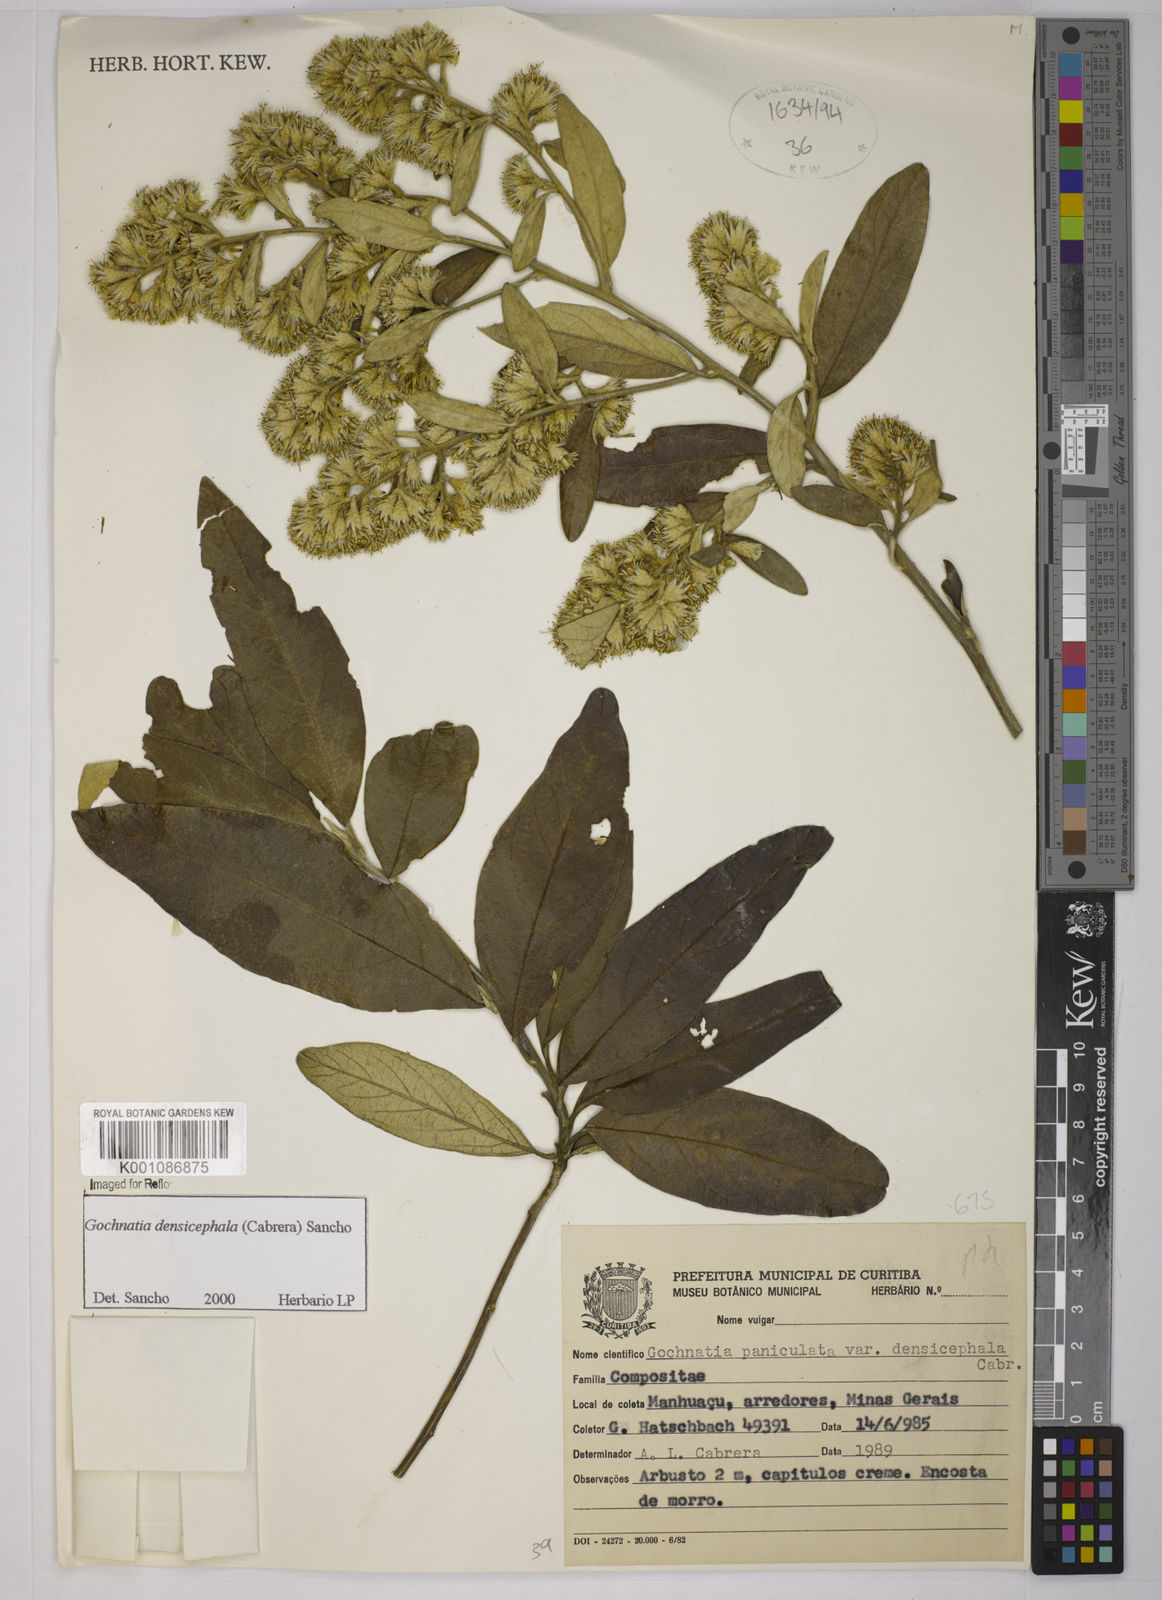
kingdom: Plantae
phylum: Tracheophyta
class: Magnoliopsida
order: Asterales
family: Asteraceae
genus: Moquiniastrum
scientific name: Moquiniastrum densicephalum
